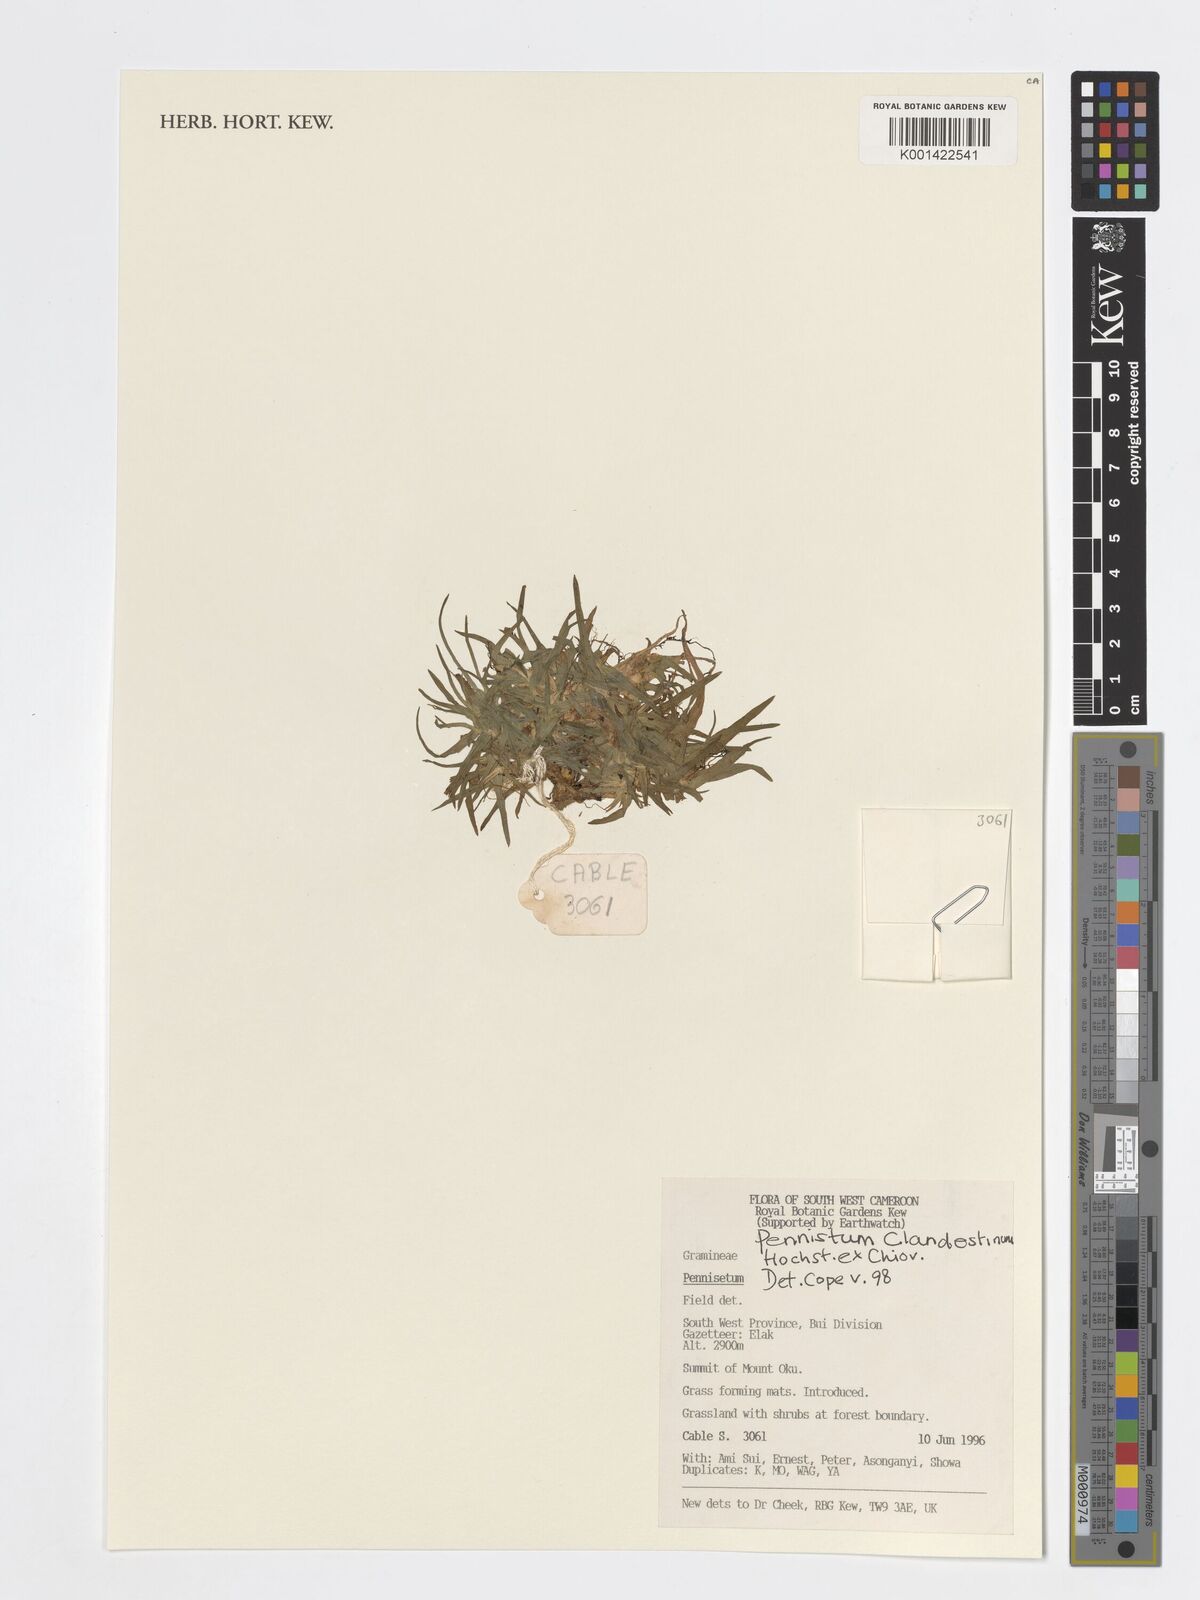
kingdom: Plantae
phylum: Tracheophyta
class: Liliopsida
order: Poales
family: Poaceae
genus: Dichanthelium
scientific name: Dichanthelium clandestinum
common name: Deer-tongue grass
